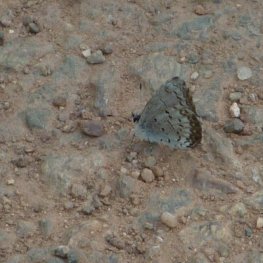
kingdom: Animalia
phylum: Arthropoda
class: Insecta
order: Lepidoptera
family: Lycaenidae
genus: Celastrina
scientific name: Celastrina lucia
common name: Northern Spring Azure
